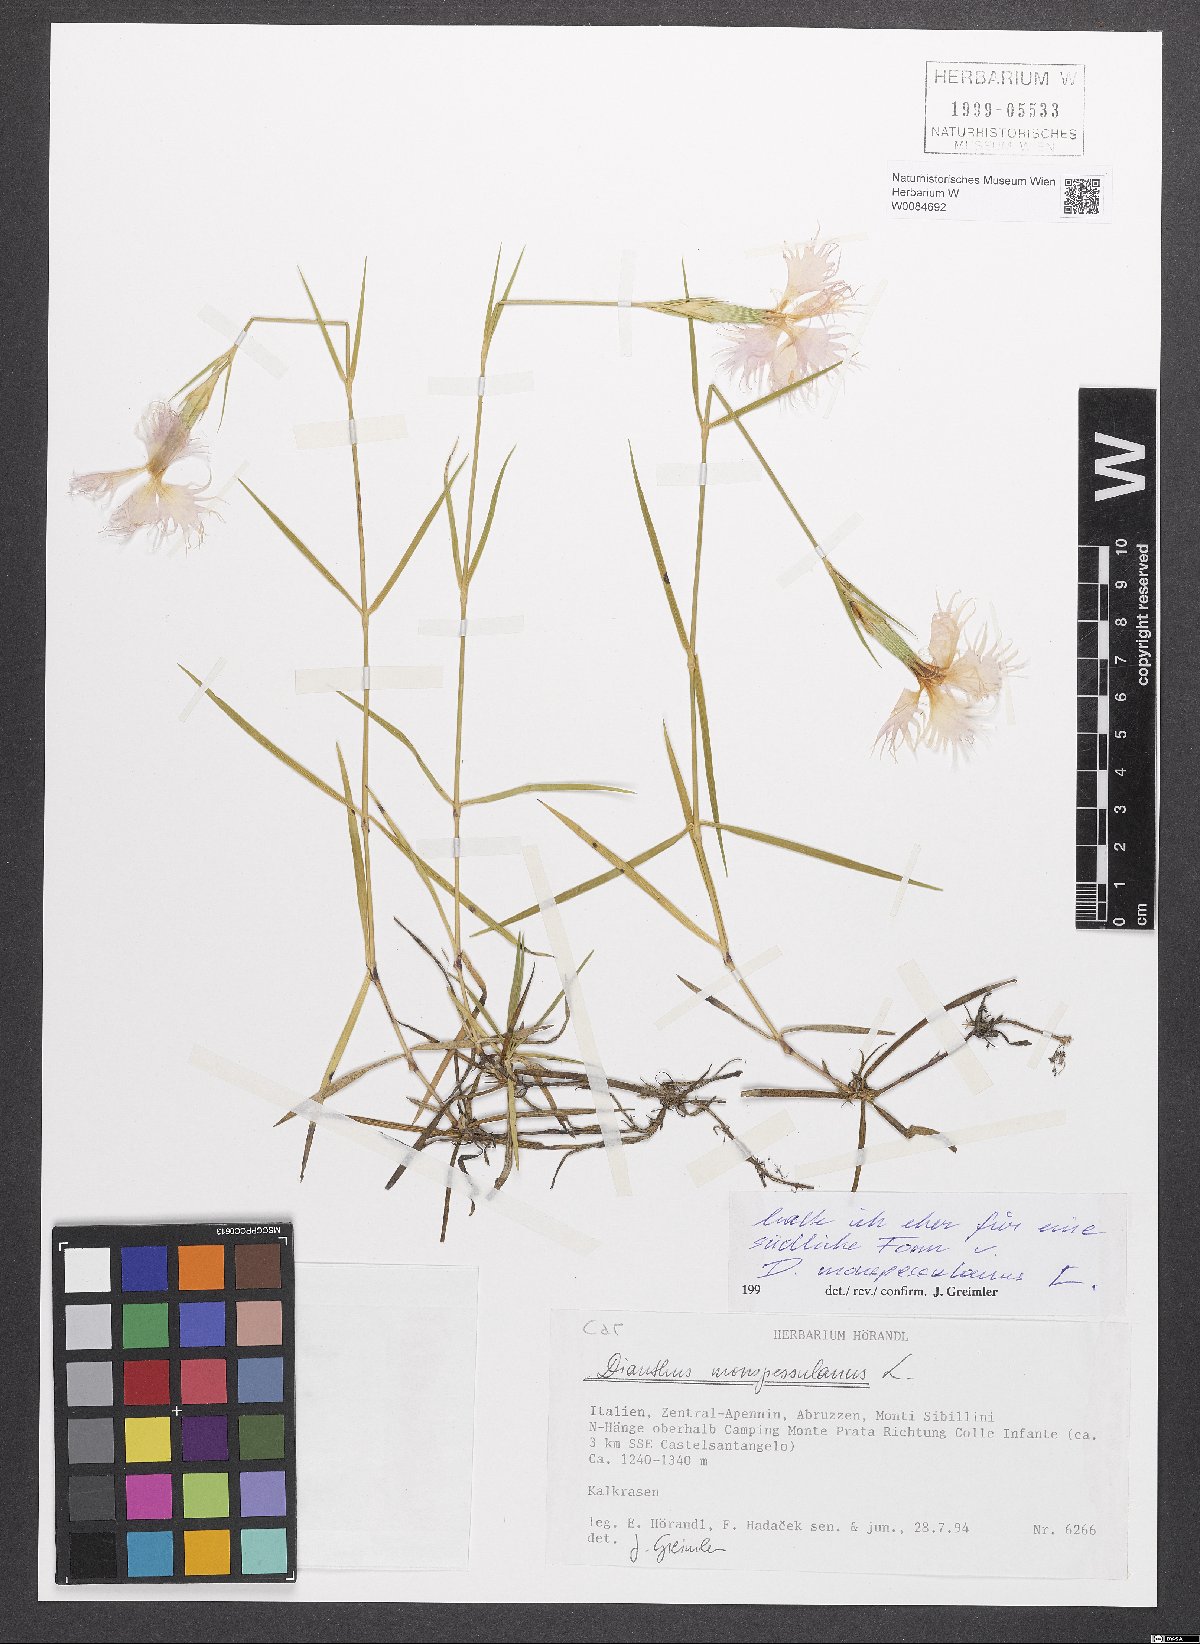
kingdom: Plantae
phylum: Tracheophyta
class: Magnoliopsida
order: Caryophyllales
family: Caryophyllaceae
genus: Dianthus
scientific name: Dianthus hyssopifolius
